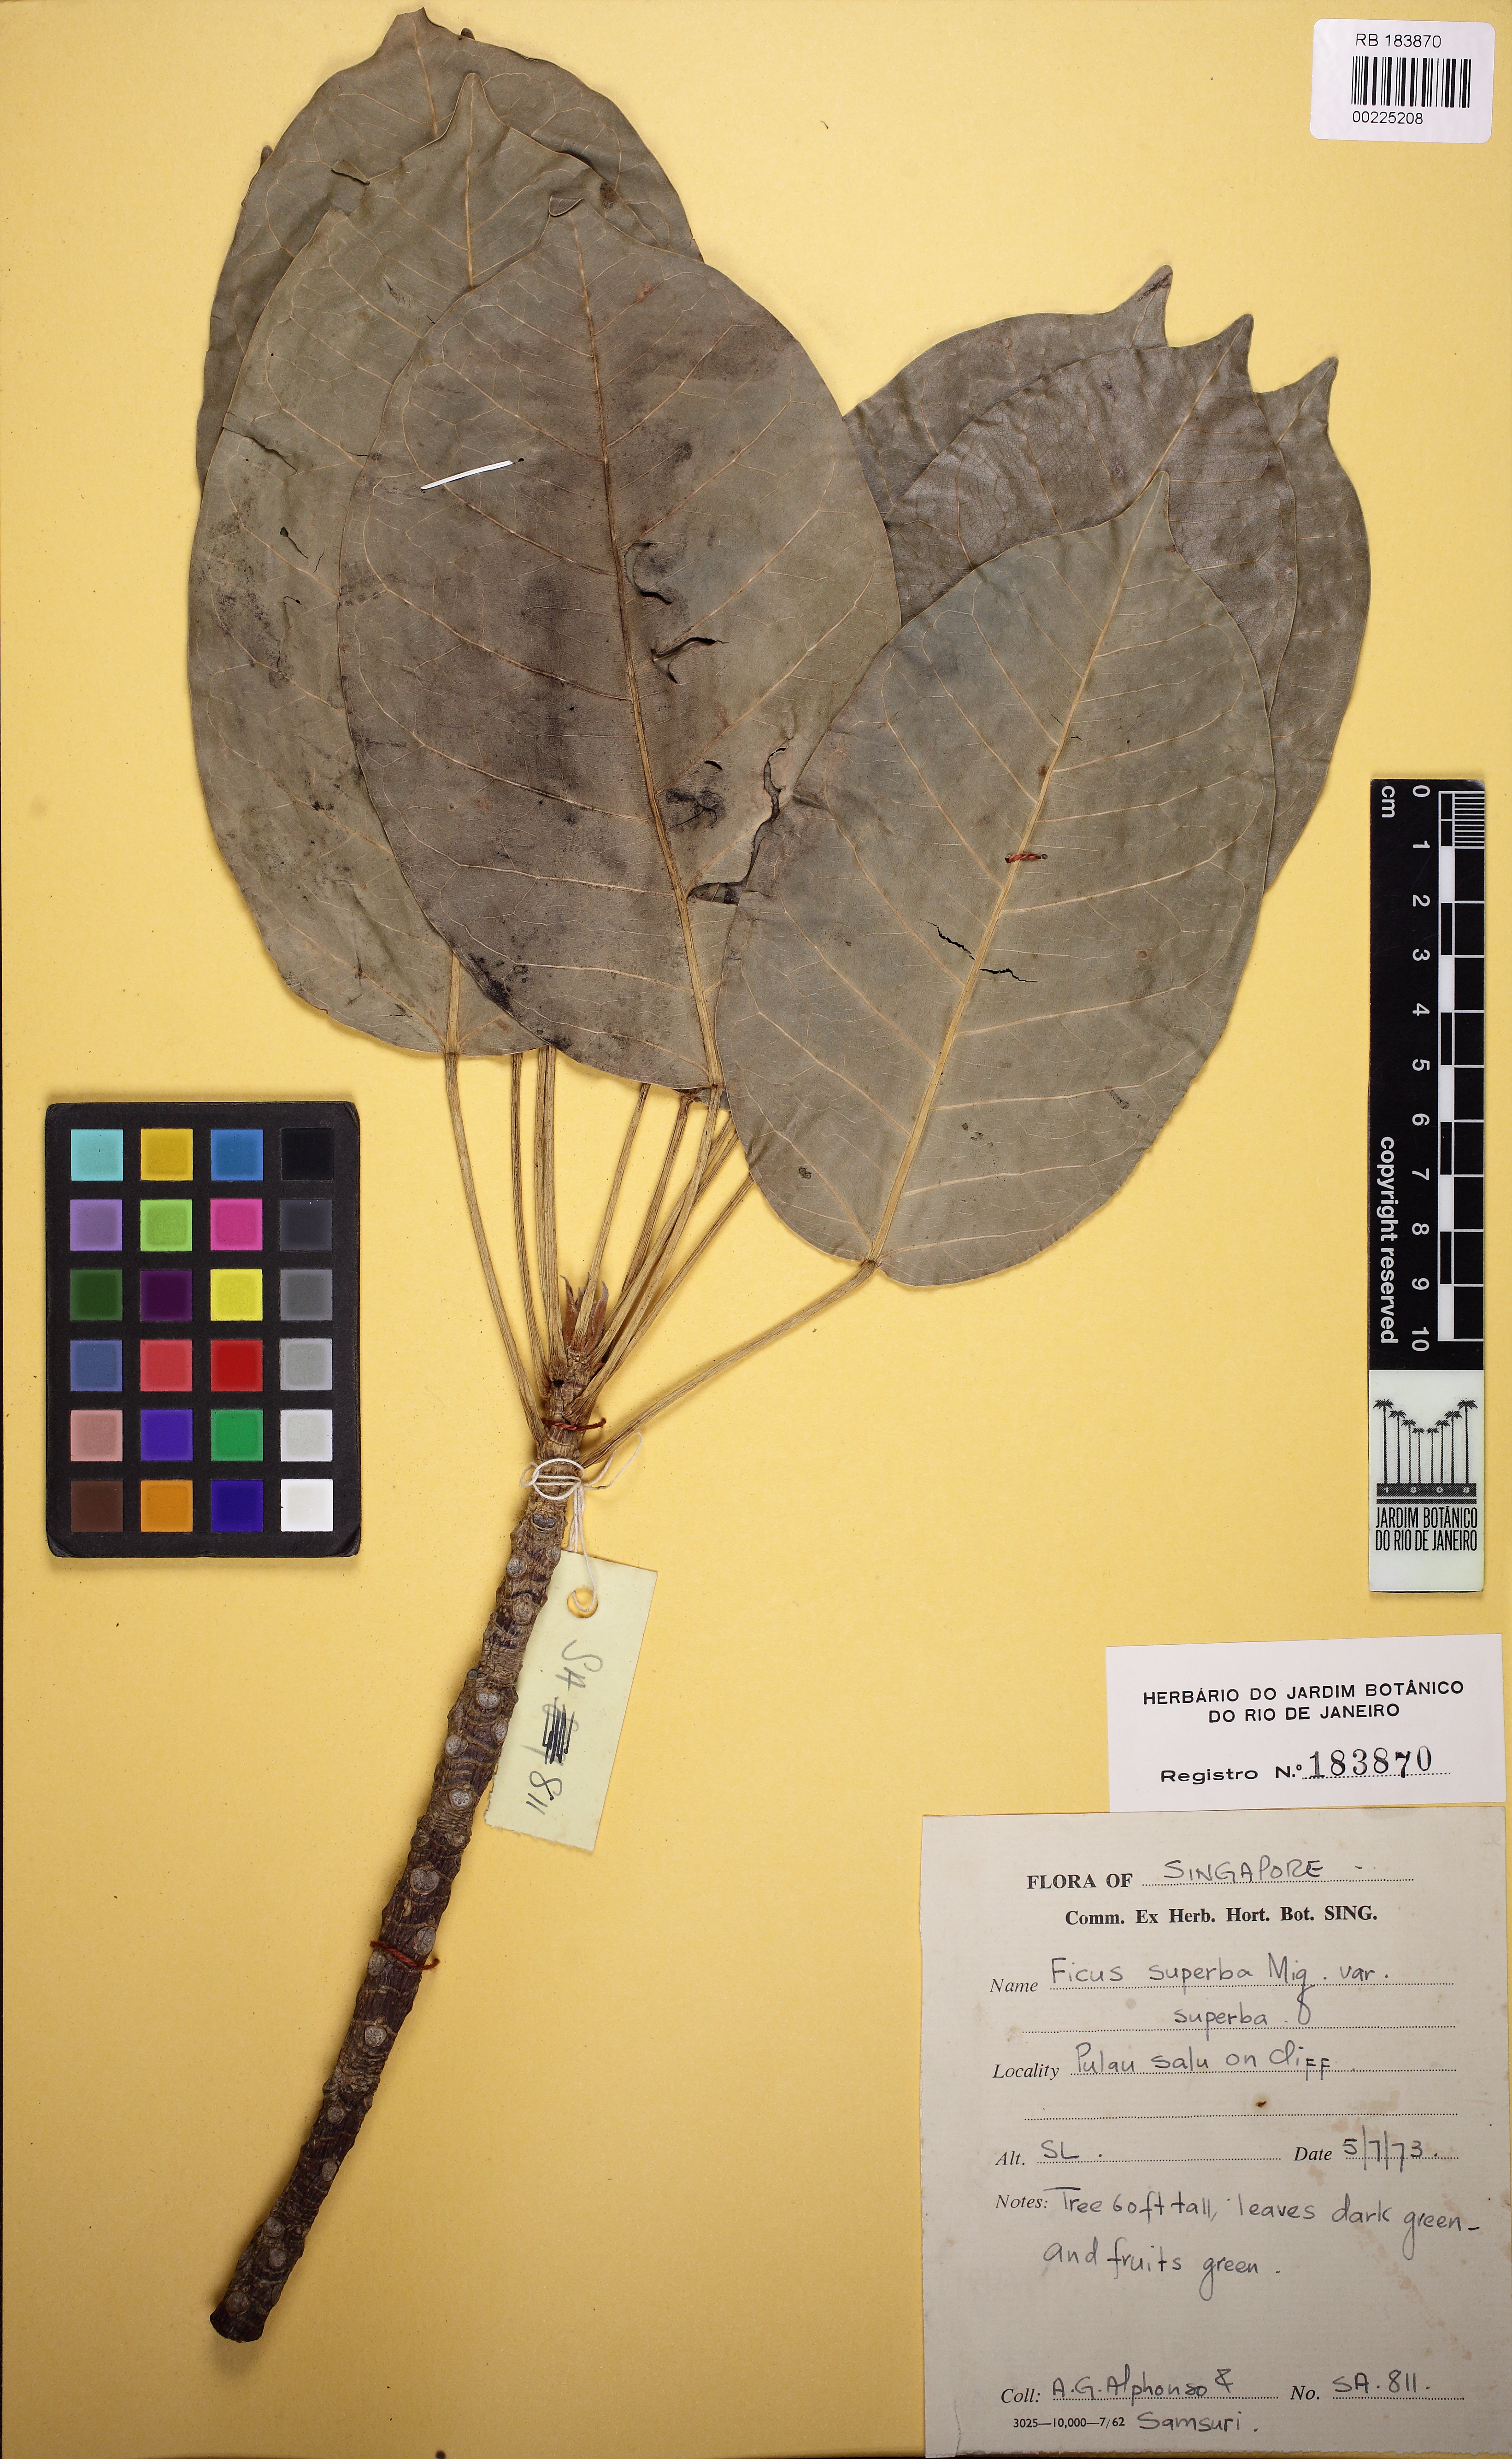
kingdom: Plantae
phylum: Tracheophyta
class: Magnoliopsida
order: Rosales
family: Moraceae
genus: Ficus
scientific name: Ficus superba
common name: Cedar fig
